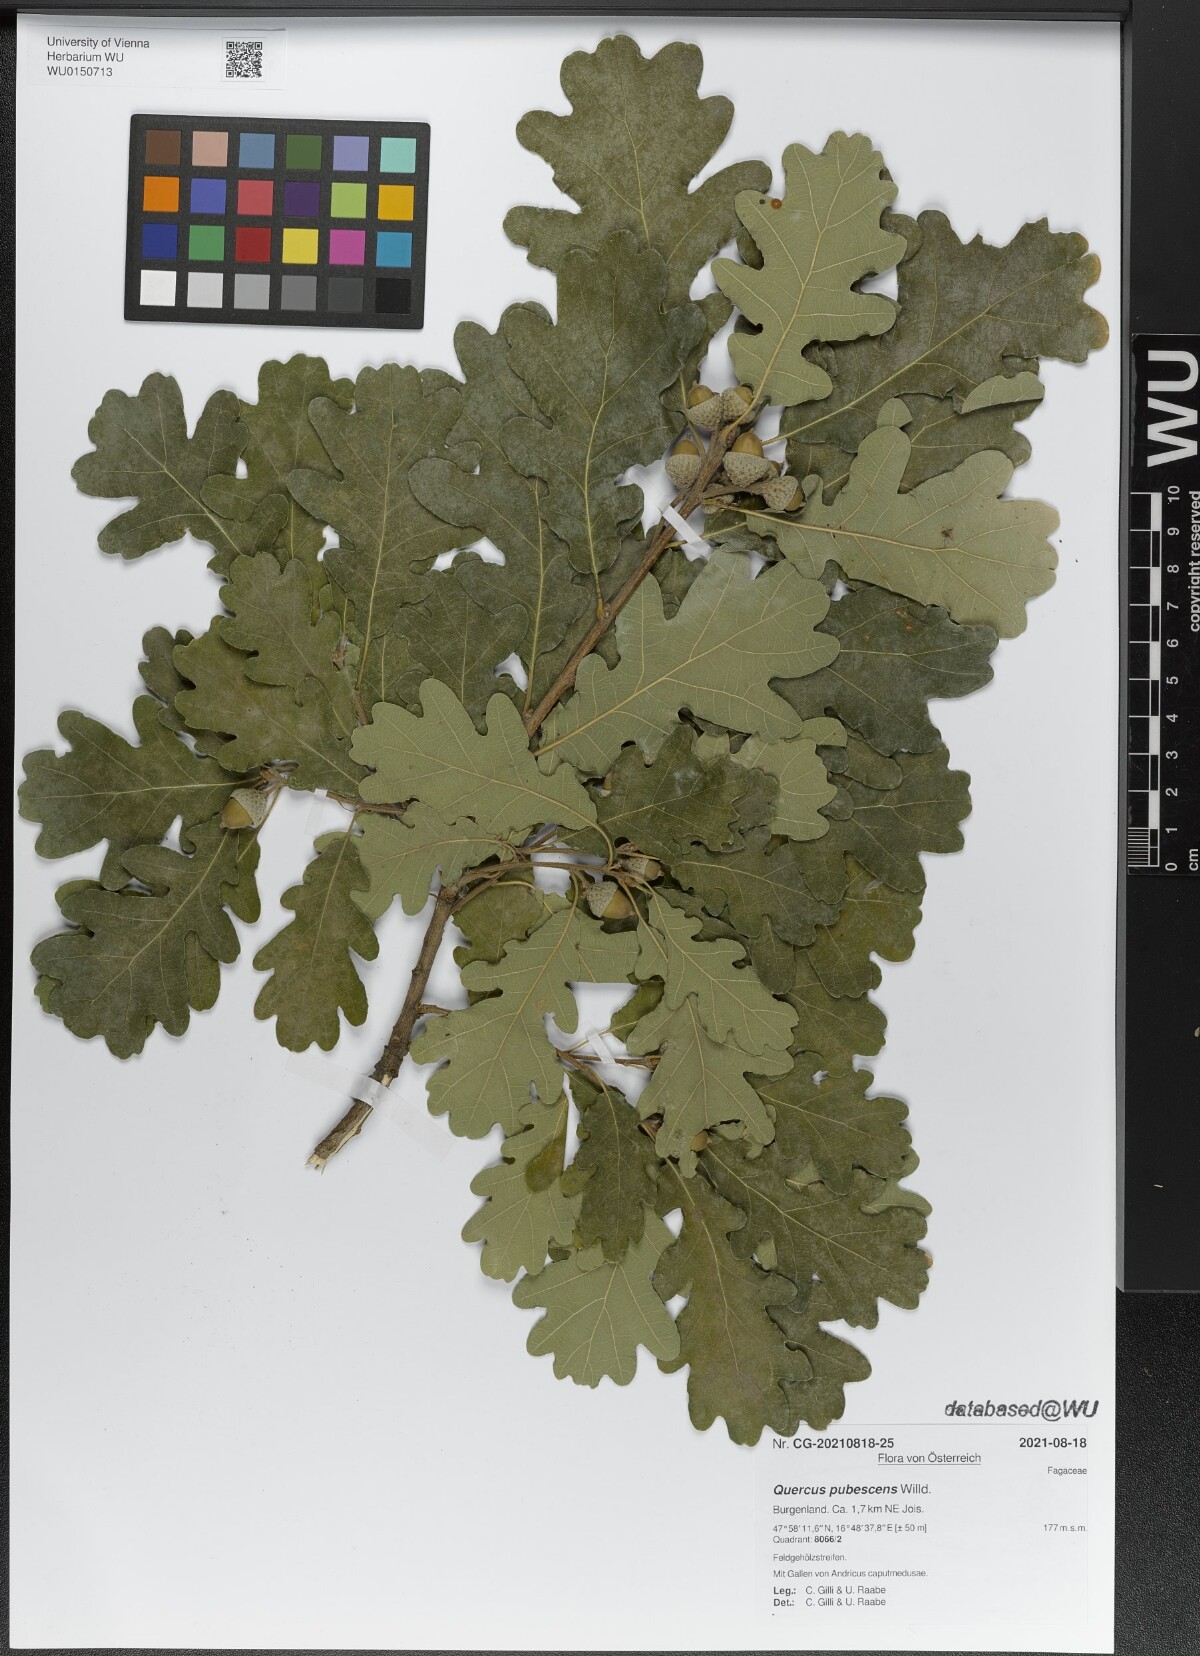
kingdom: Plantae
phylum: Tracheophyta
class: Magnoliopsida
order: Fagales
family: Fagaceae
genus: Quercus
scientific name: Quercus pubescens
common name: Downy oak
